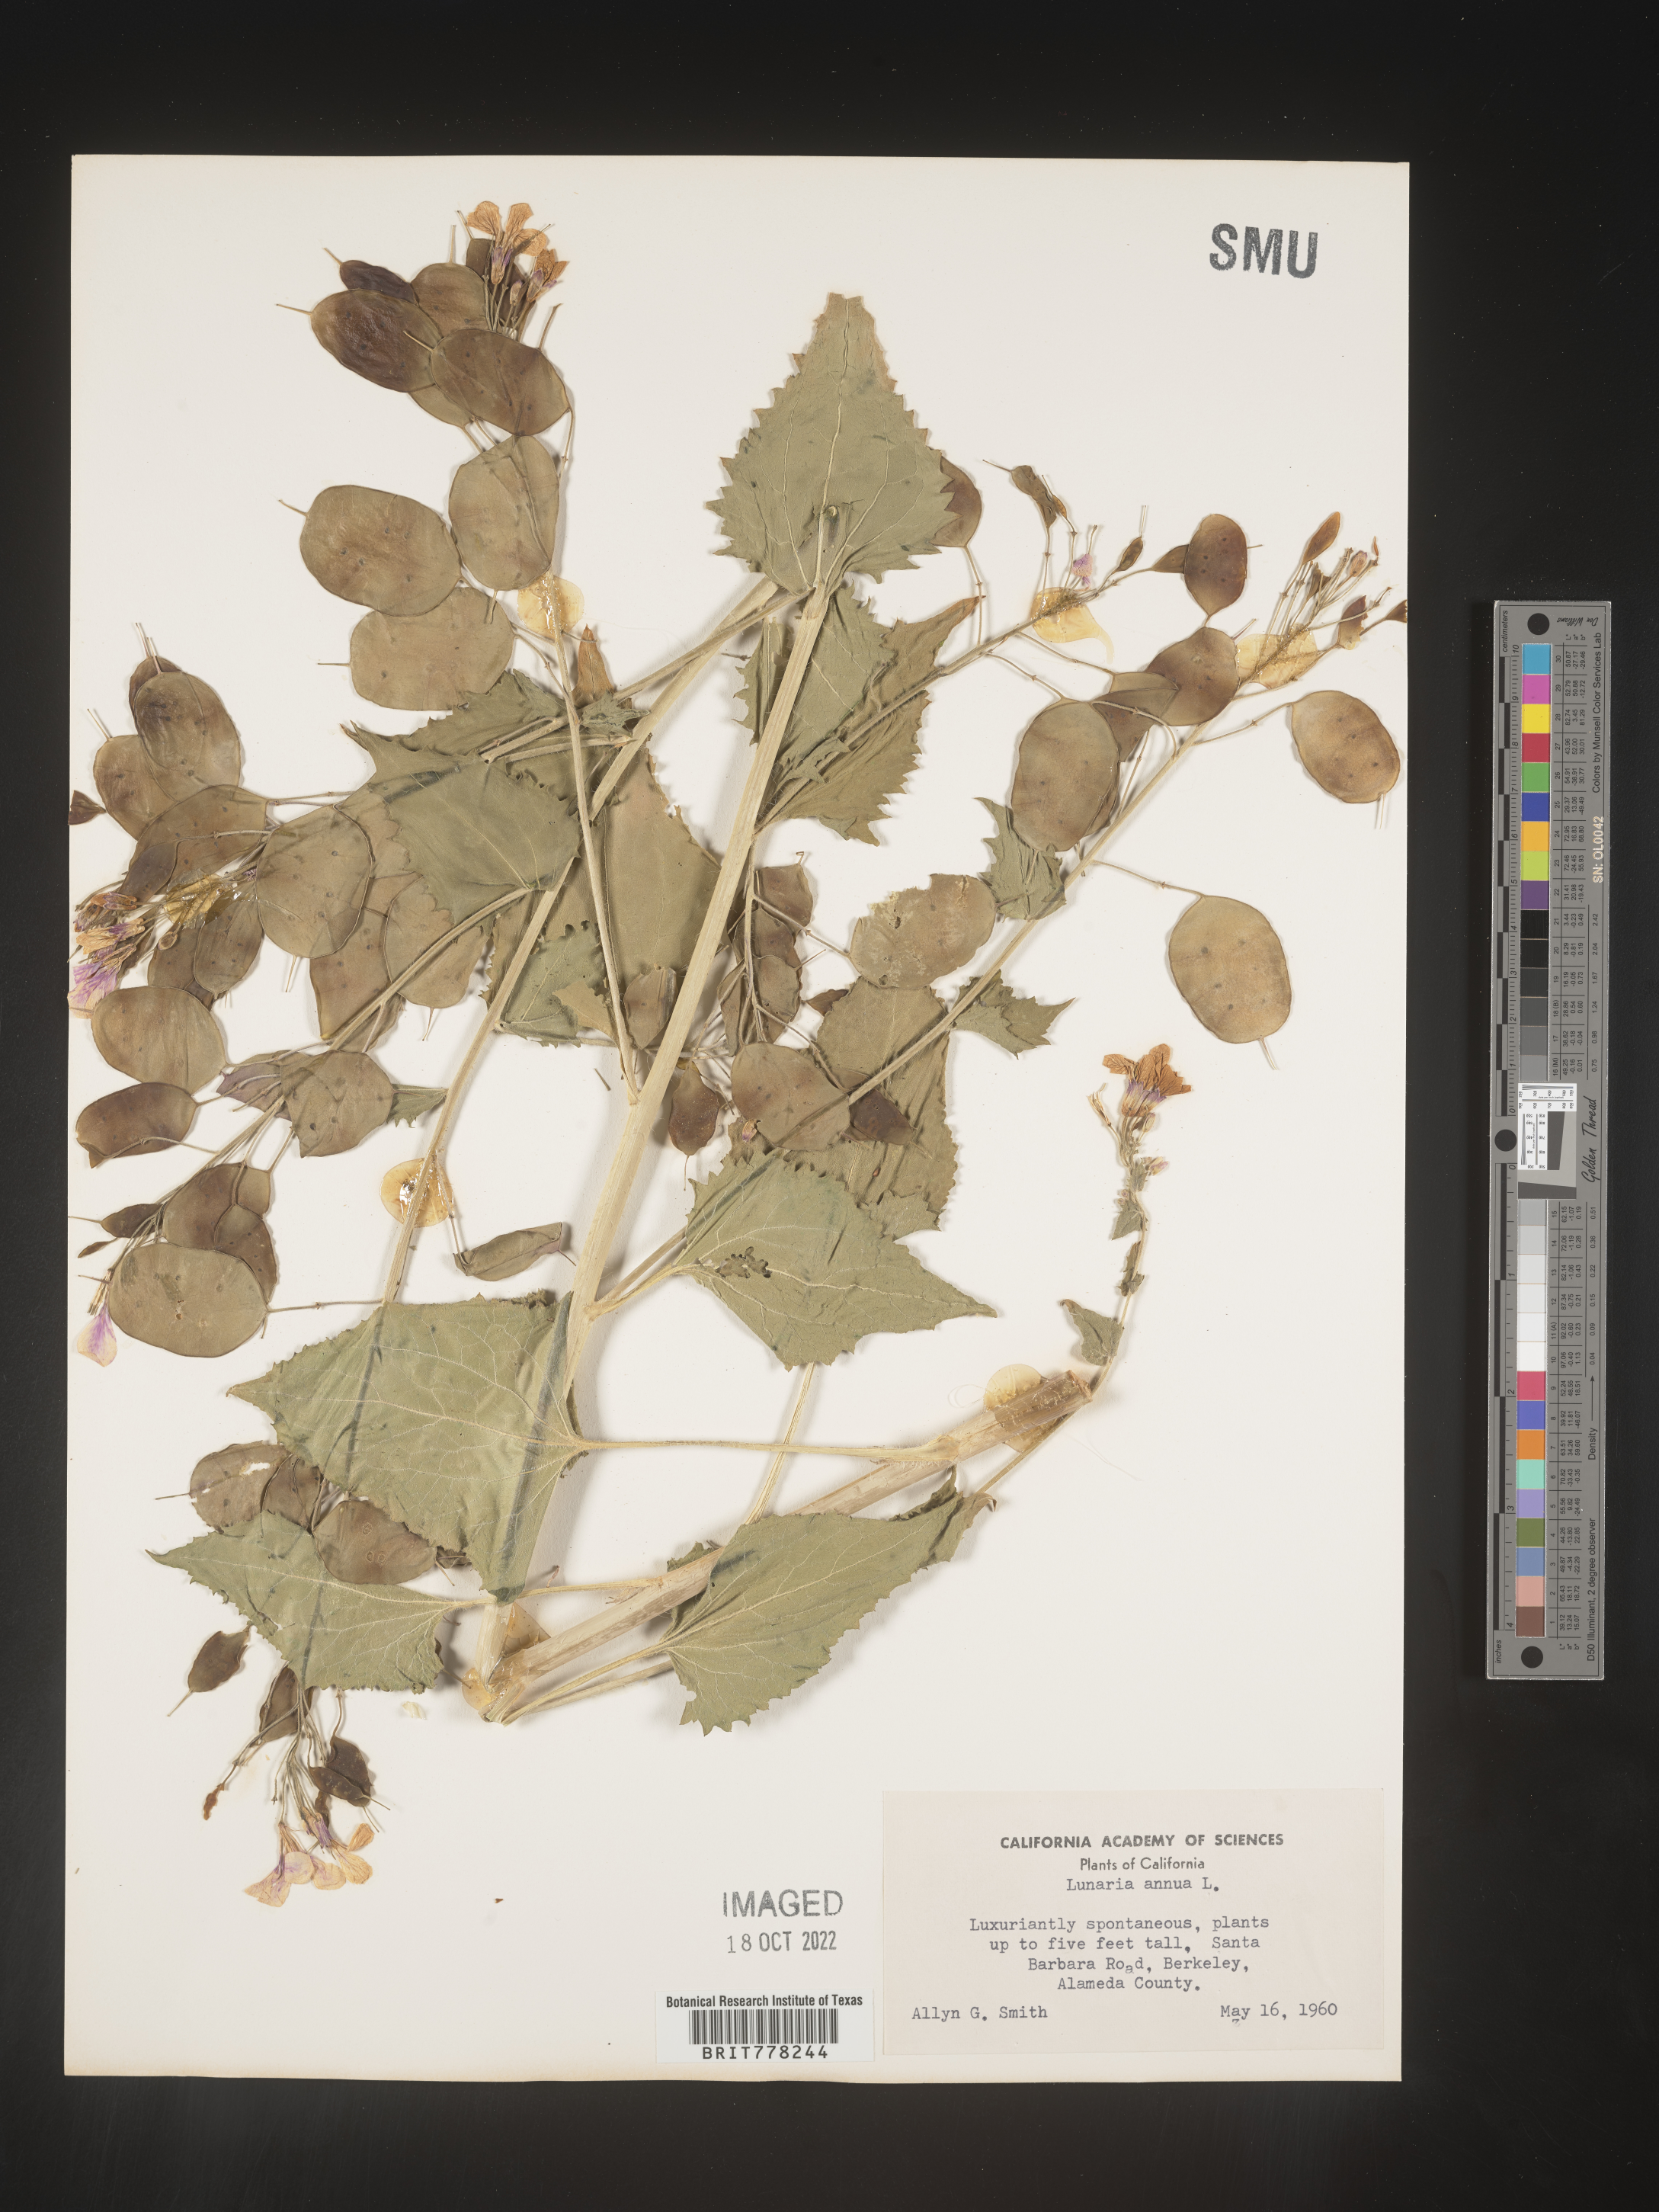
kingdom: Plantae
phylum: Tracheophyta
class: Magnoliopsida
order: Brassicales
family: Brassicaceae
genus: Lunaria
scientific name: Lunaria
